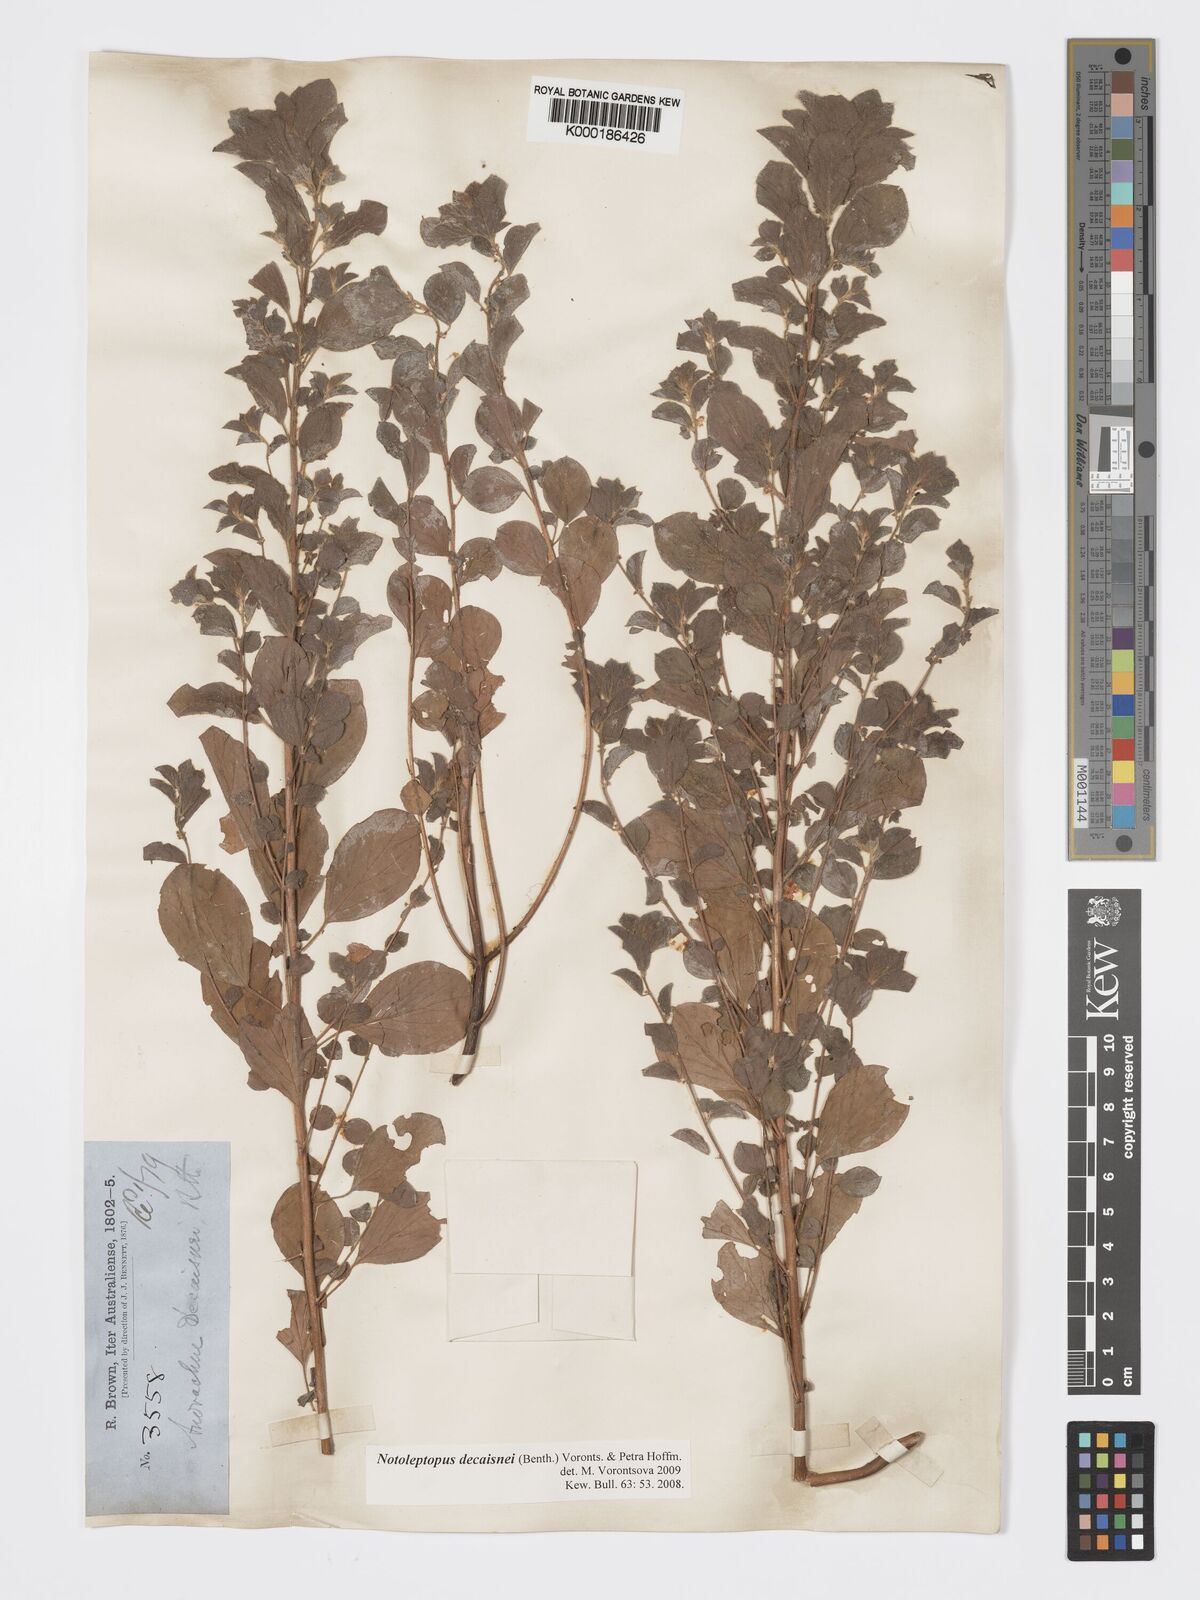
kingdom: Plantae
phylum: Tracheophyta
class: Magnoliopsida
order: Malpighiales
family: Phyllanthaceae
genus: Andrachne
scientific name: Andrachne
